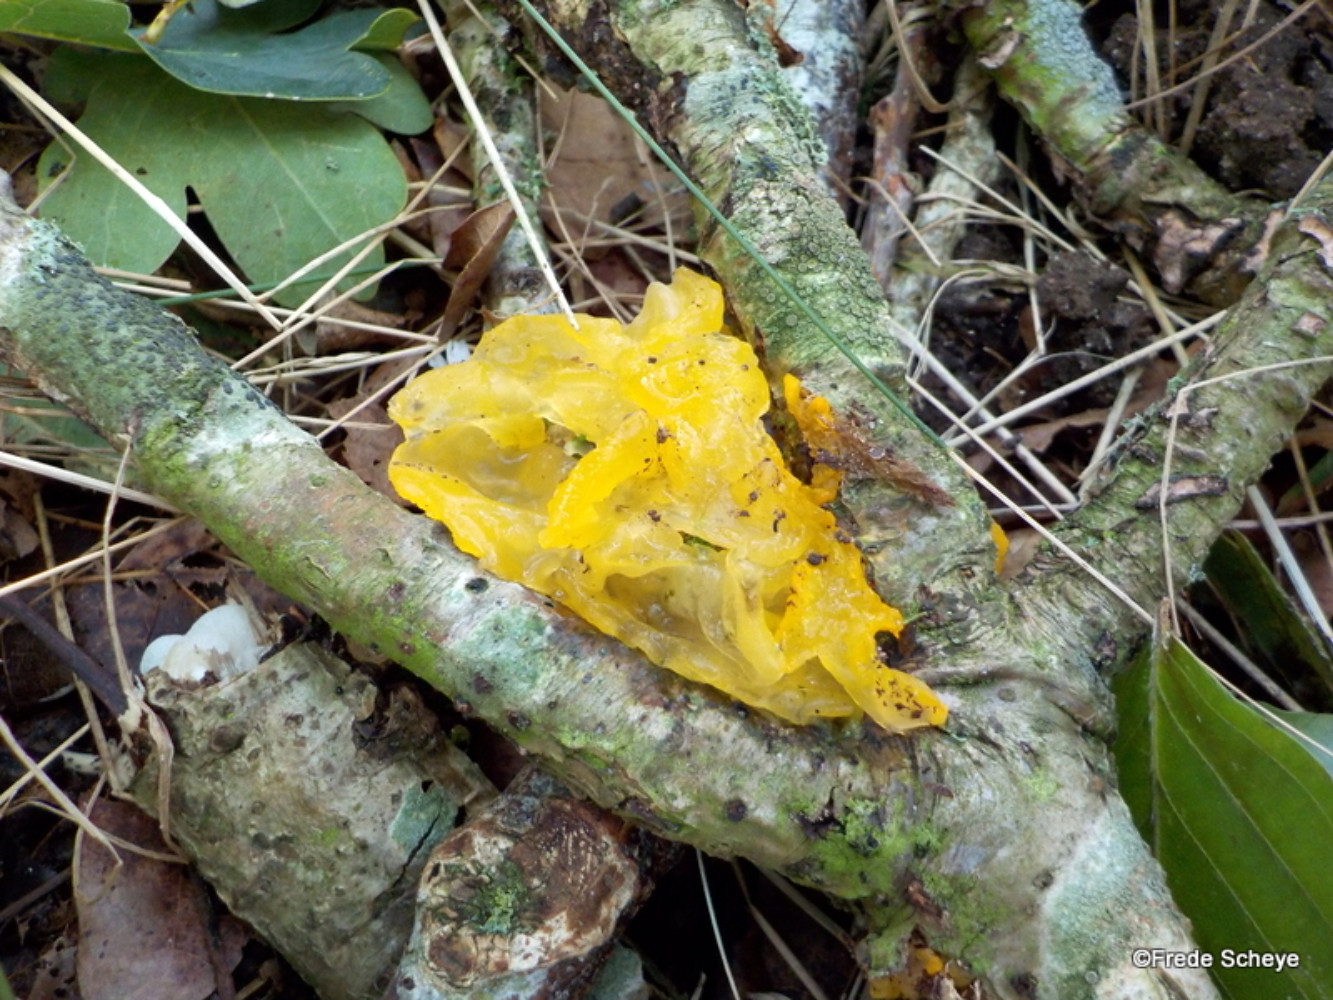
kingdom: Fungi
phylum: Basidiomycota
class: Tremellomycetes
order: Tremellales
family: Tremellaceae
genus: Tremella
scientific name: Tremella mesenterica
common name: gul bævresvamp
